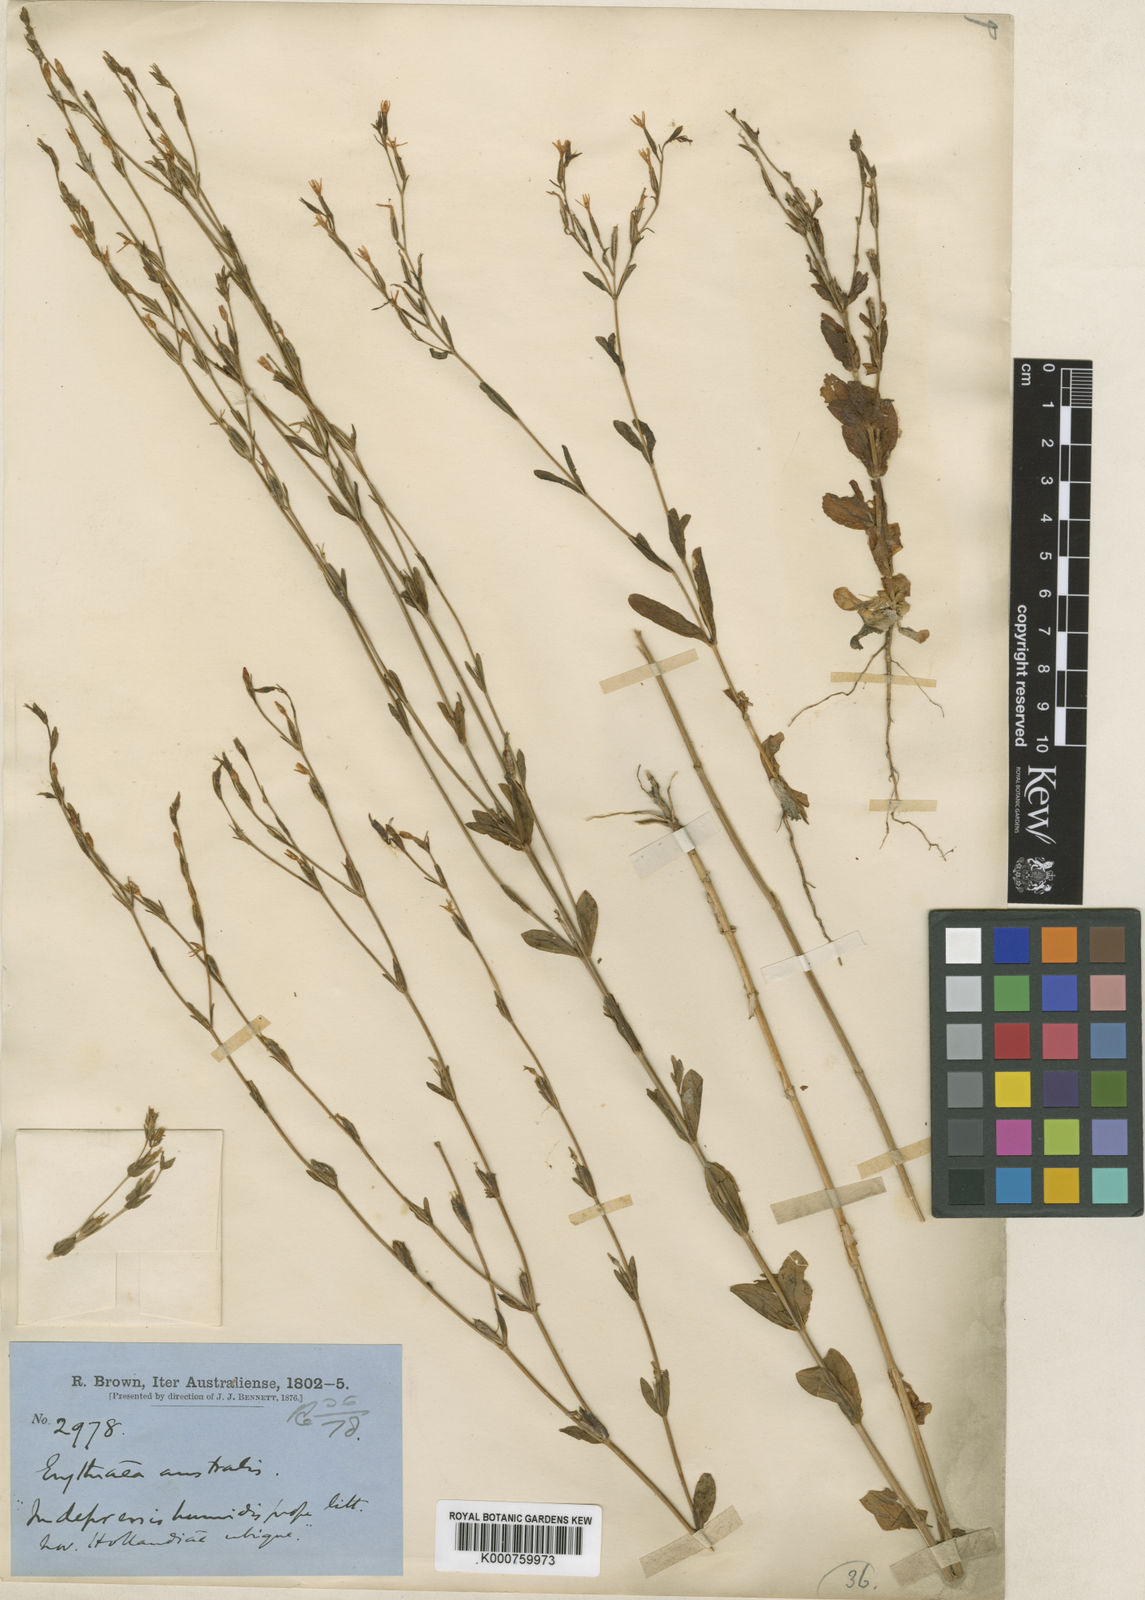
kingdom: Plantae
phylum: Tracheophyta
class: Magnoliopsida
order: Gentianales
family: Gentianaceae
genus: Centaurium
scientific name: Centaurium
